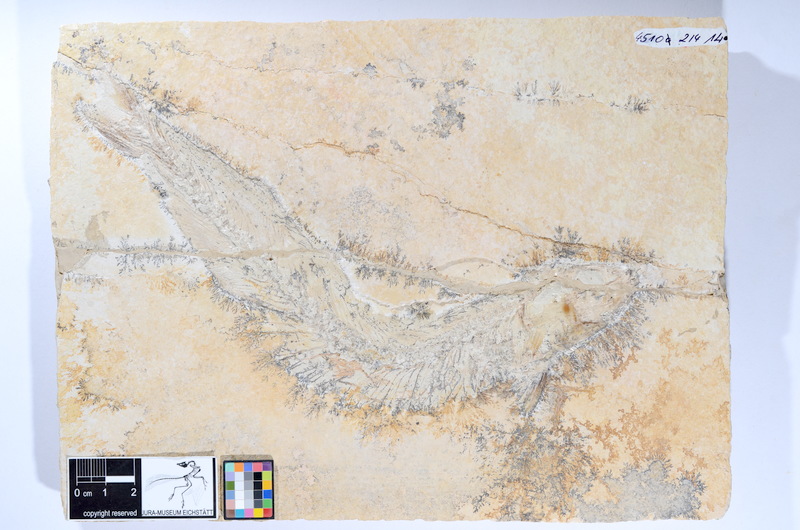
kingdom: Animalia
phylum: Chordata
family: Allothrissopidae
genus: Allothrissops
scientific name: Allothrissops mesogaster
